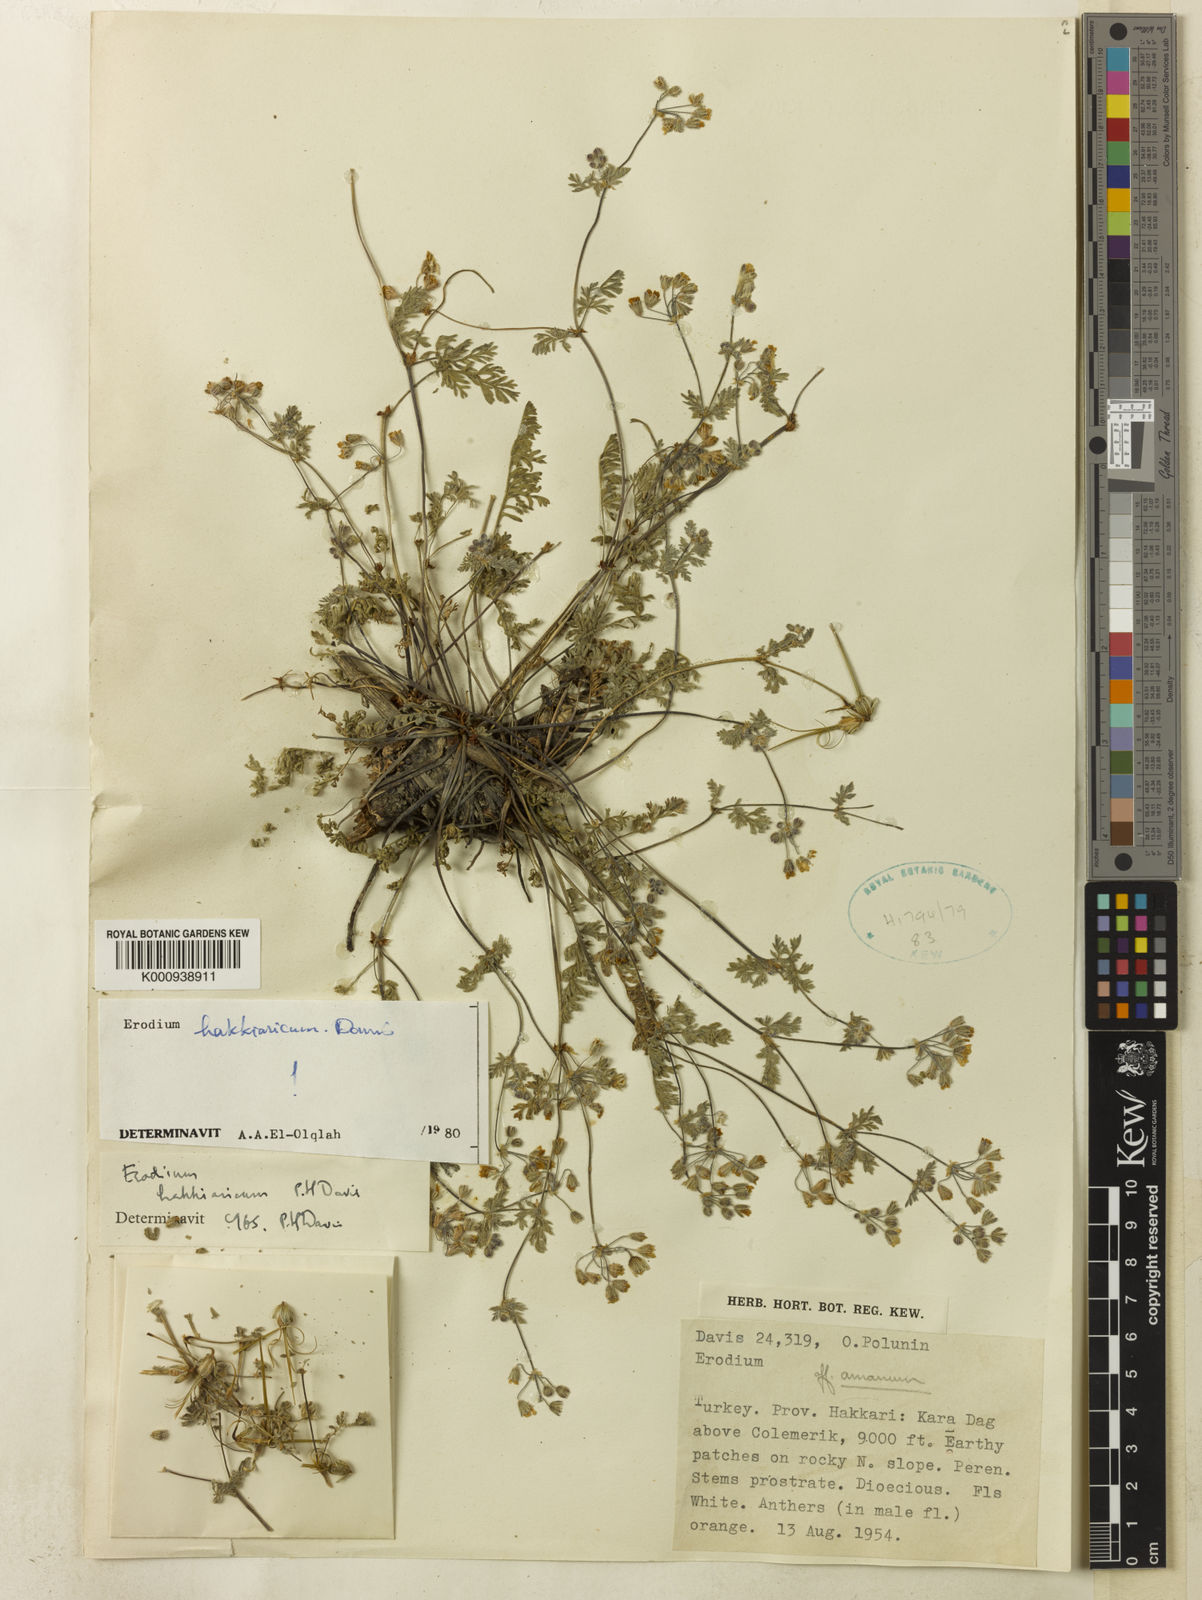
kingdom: Plantae
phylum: Tracheophyta
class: Magnoliopsida
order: Geraniales
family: Geraniaceae
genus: Erodium
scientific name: Erodium hakkiaricum
